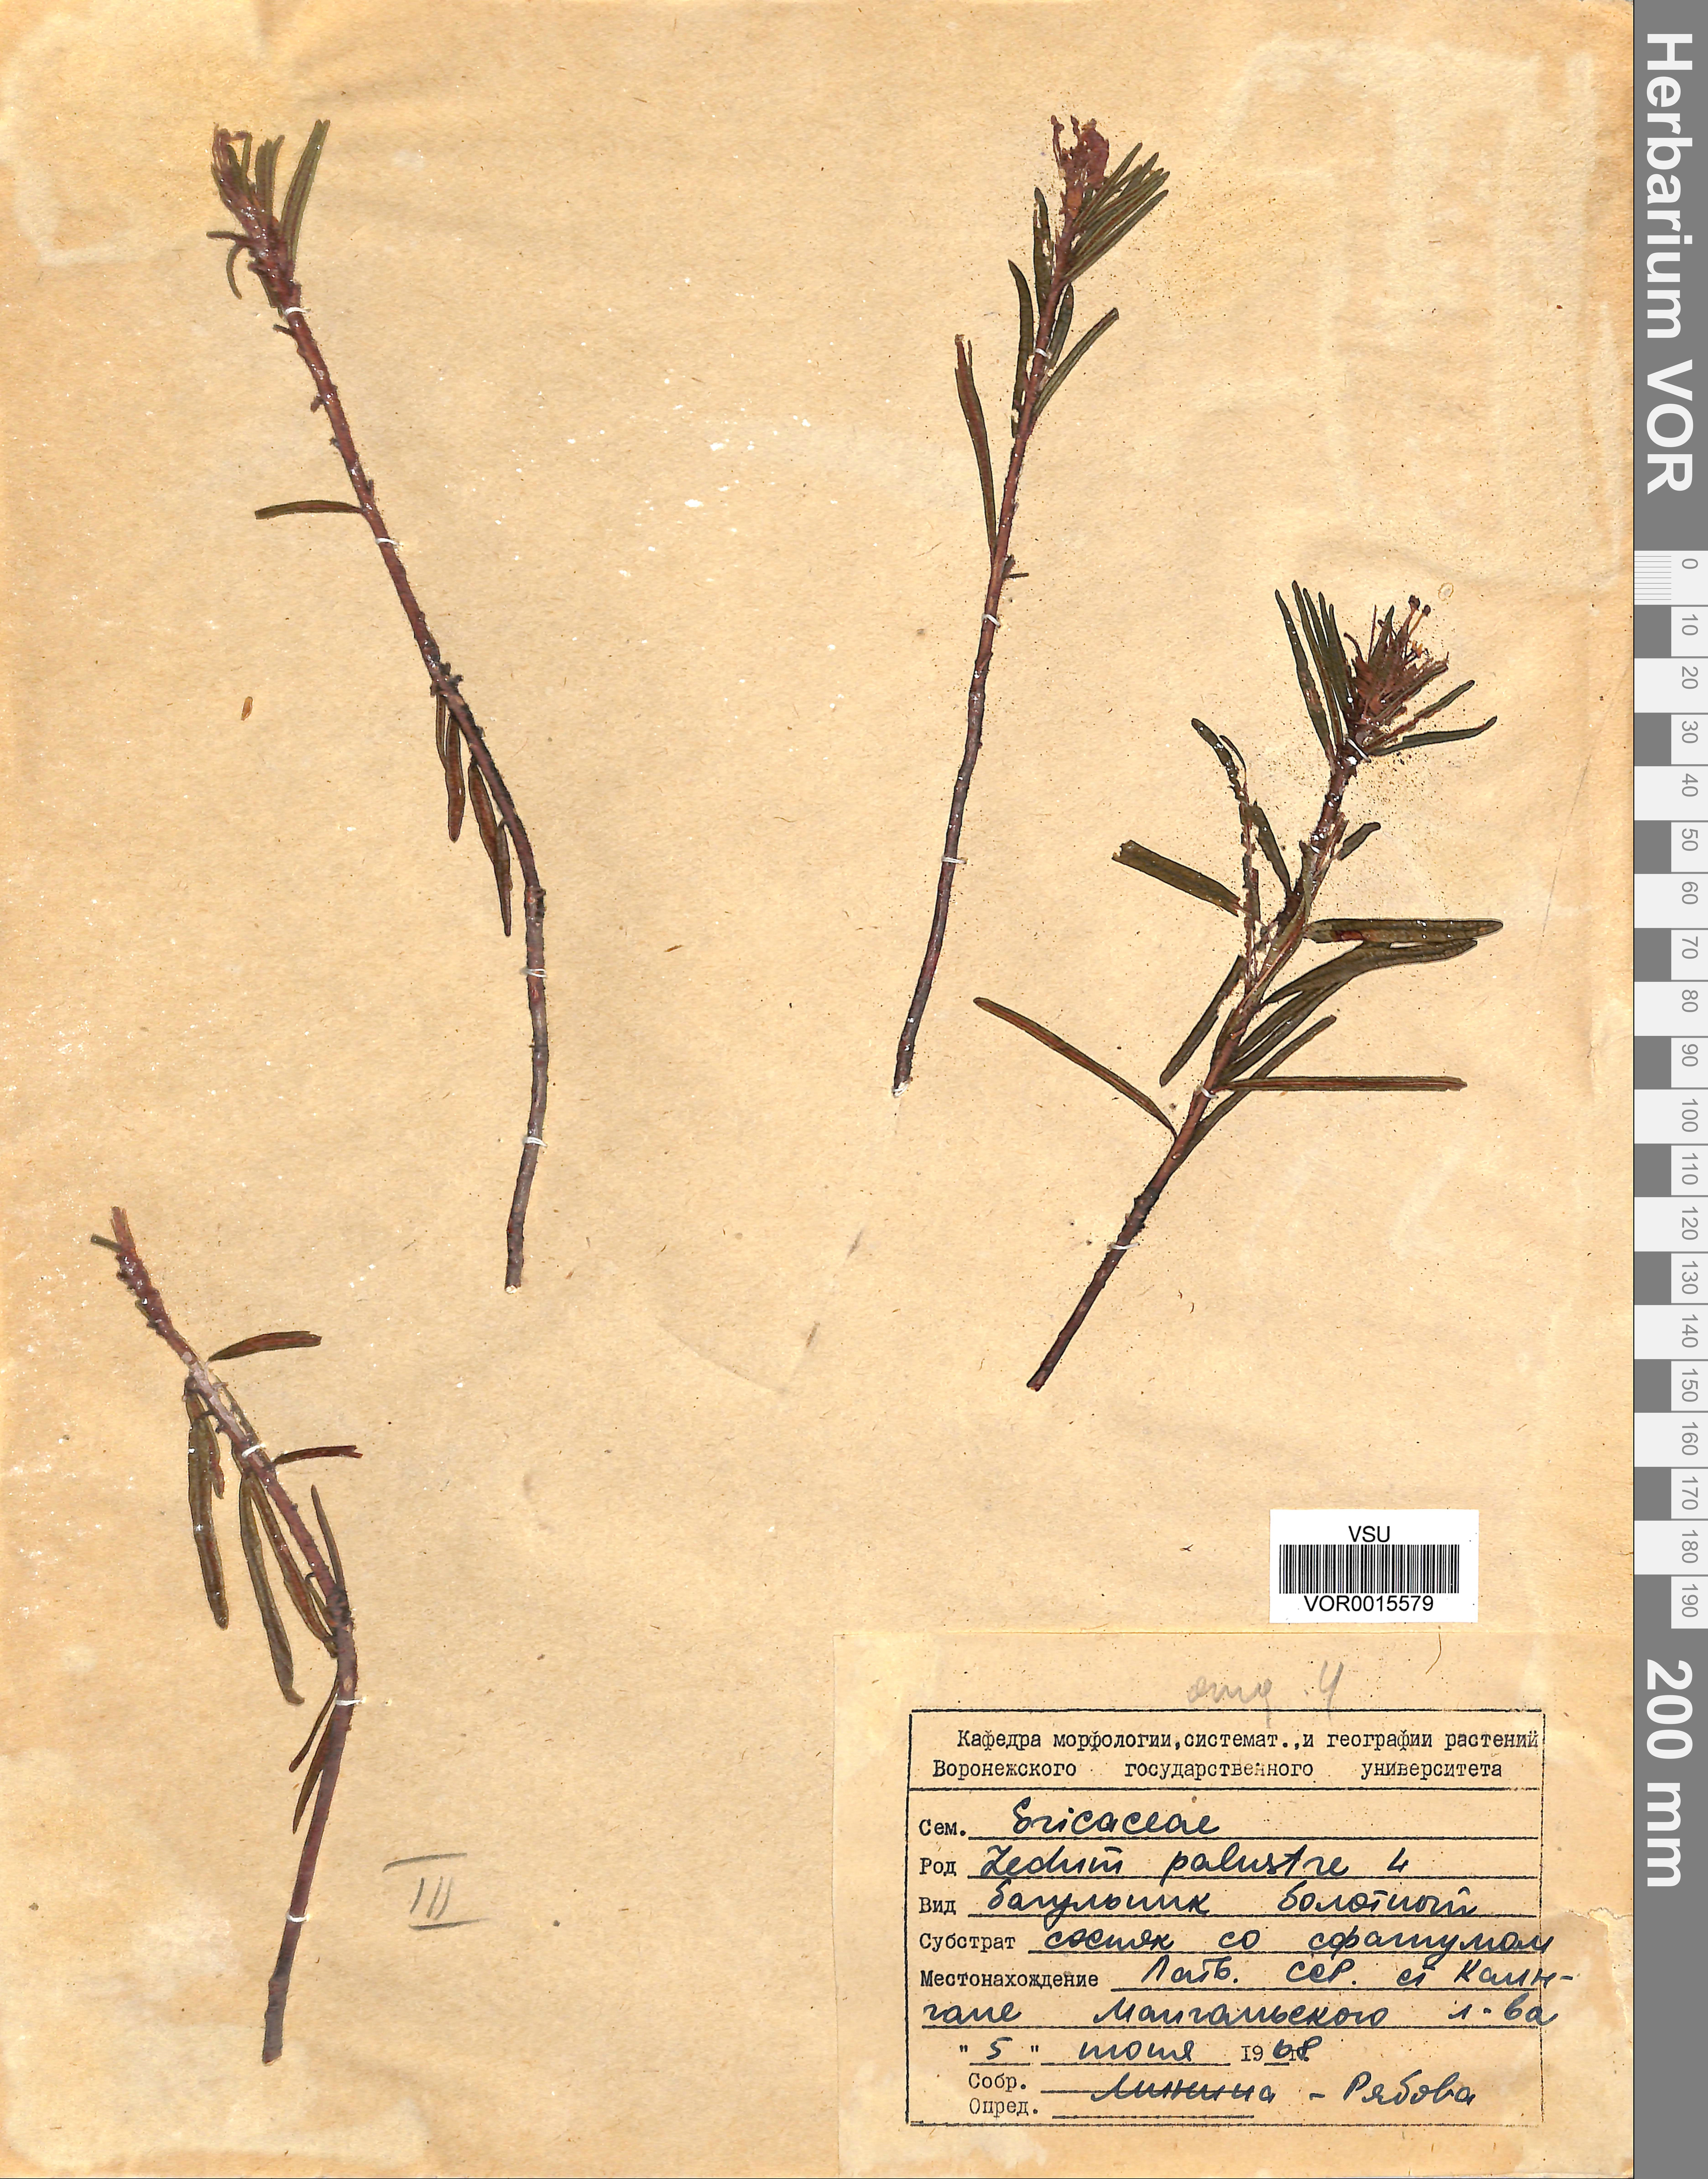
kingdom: Plantae
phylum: Tracheophyta
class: Magnoliopsida
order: Ericales
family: Ericaceae
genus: Rhododendron
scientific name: Rhododendron tomentosum
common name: Marsh labrador tea
